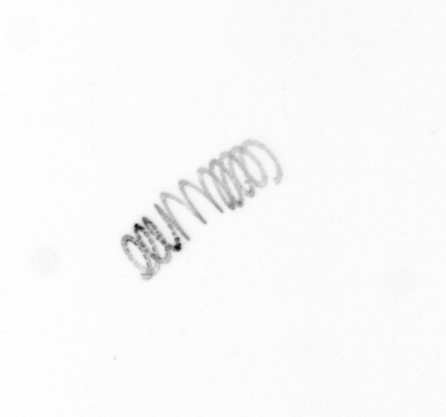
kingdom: Chromista
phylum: Ochrophyta
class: Bacillariophyceae
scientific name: Bacillariophyceae
